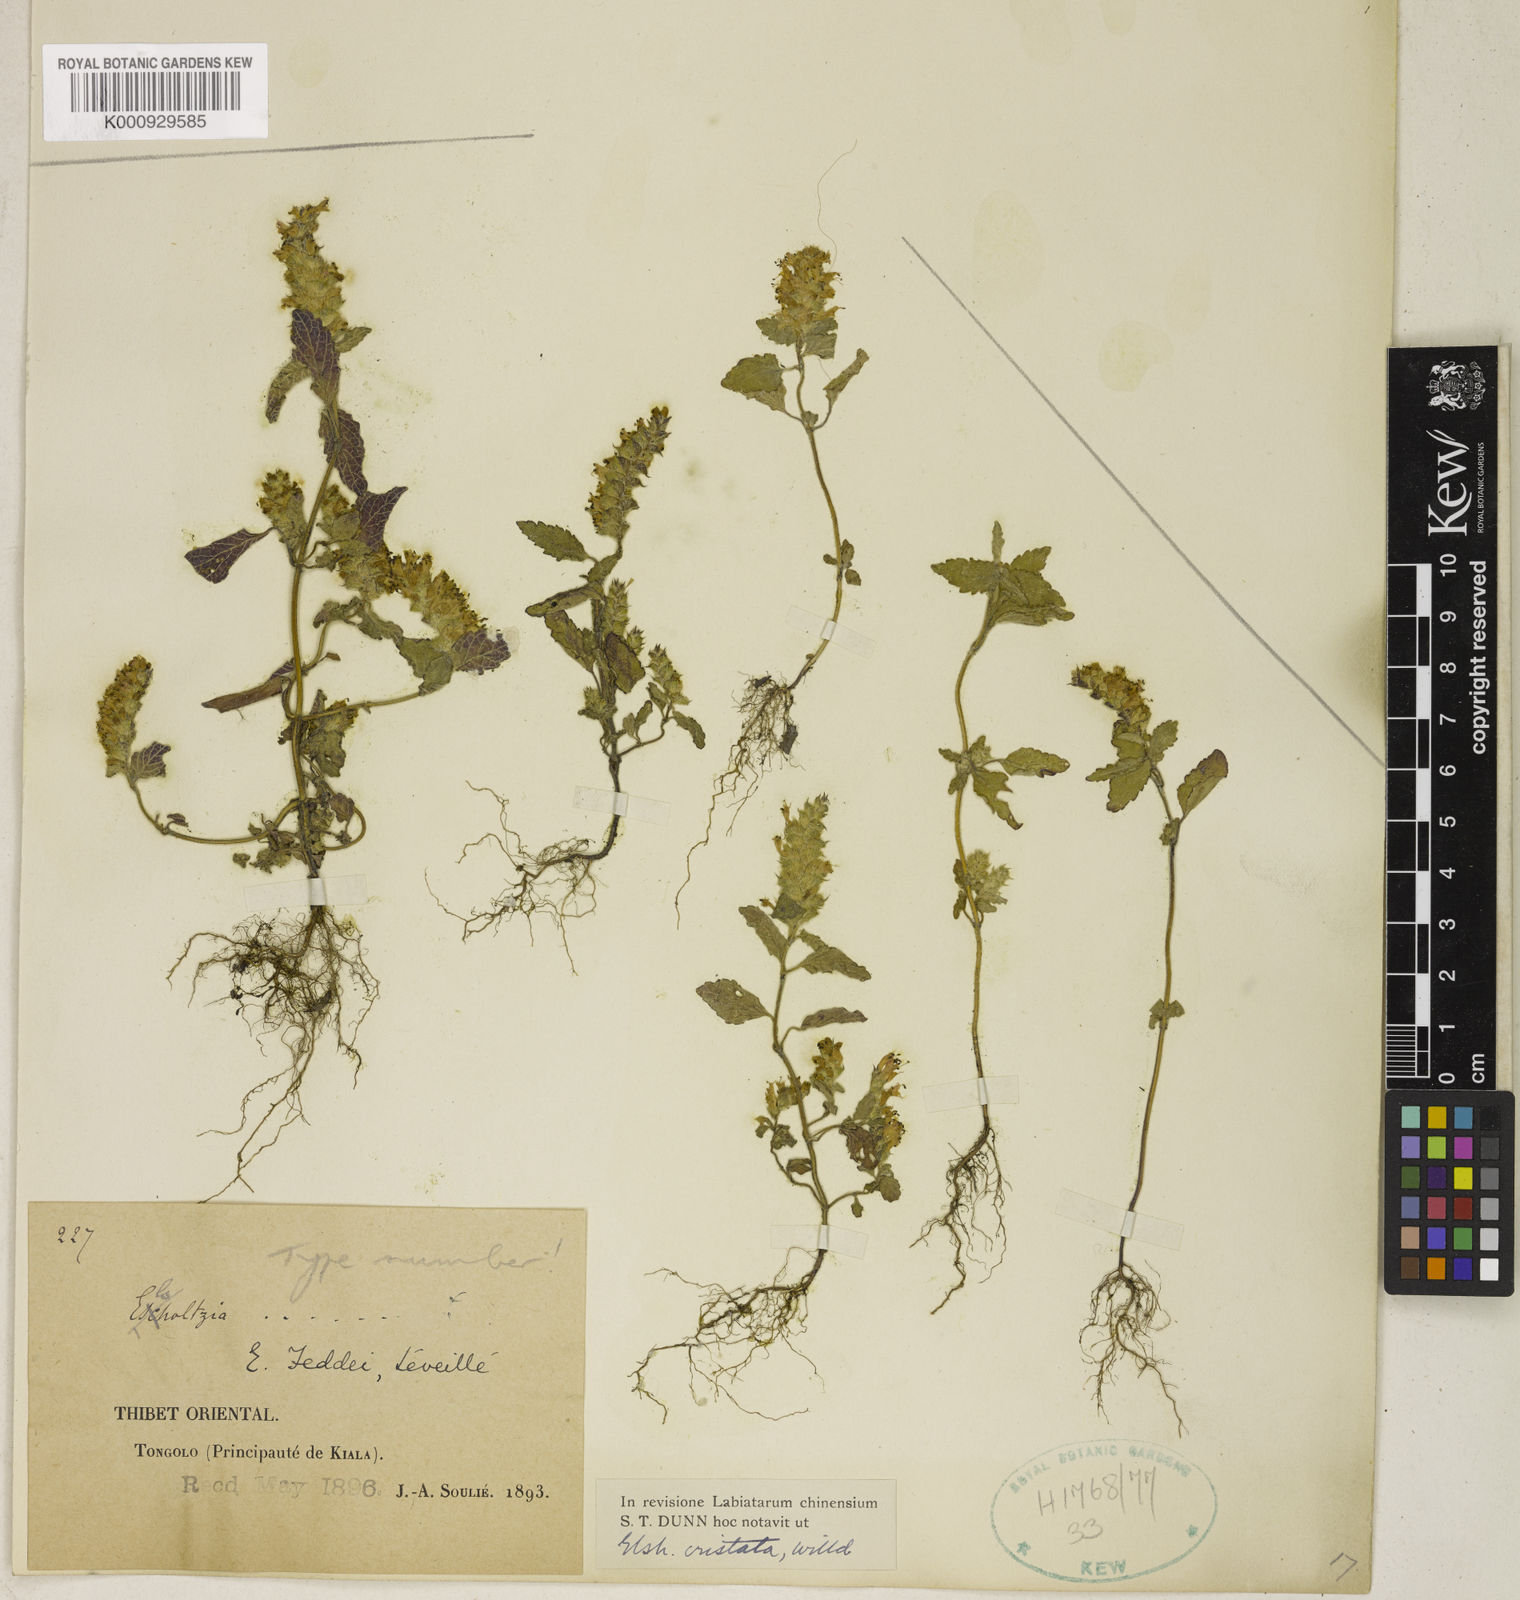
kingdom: Plantae
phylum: Tracheophyta
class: Magnoliopsida
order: Lamiales
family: Lamiaceae
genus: Elsholtzia
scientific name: Elsholtzia ciliata
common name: Ciliate elsholtzia
